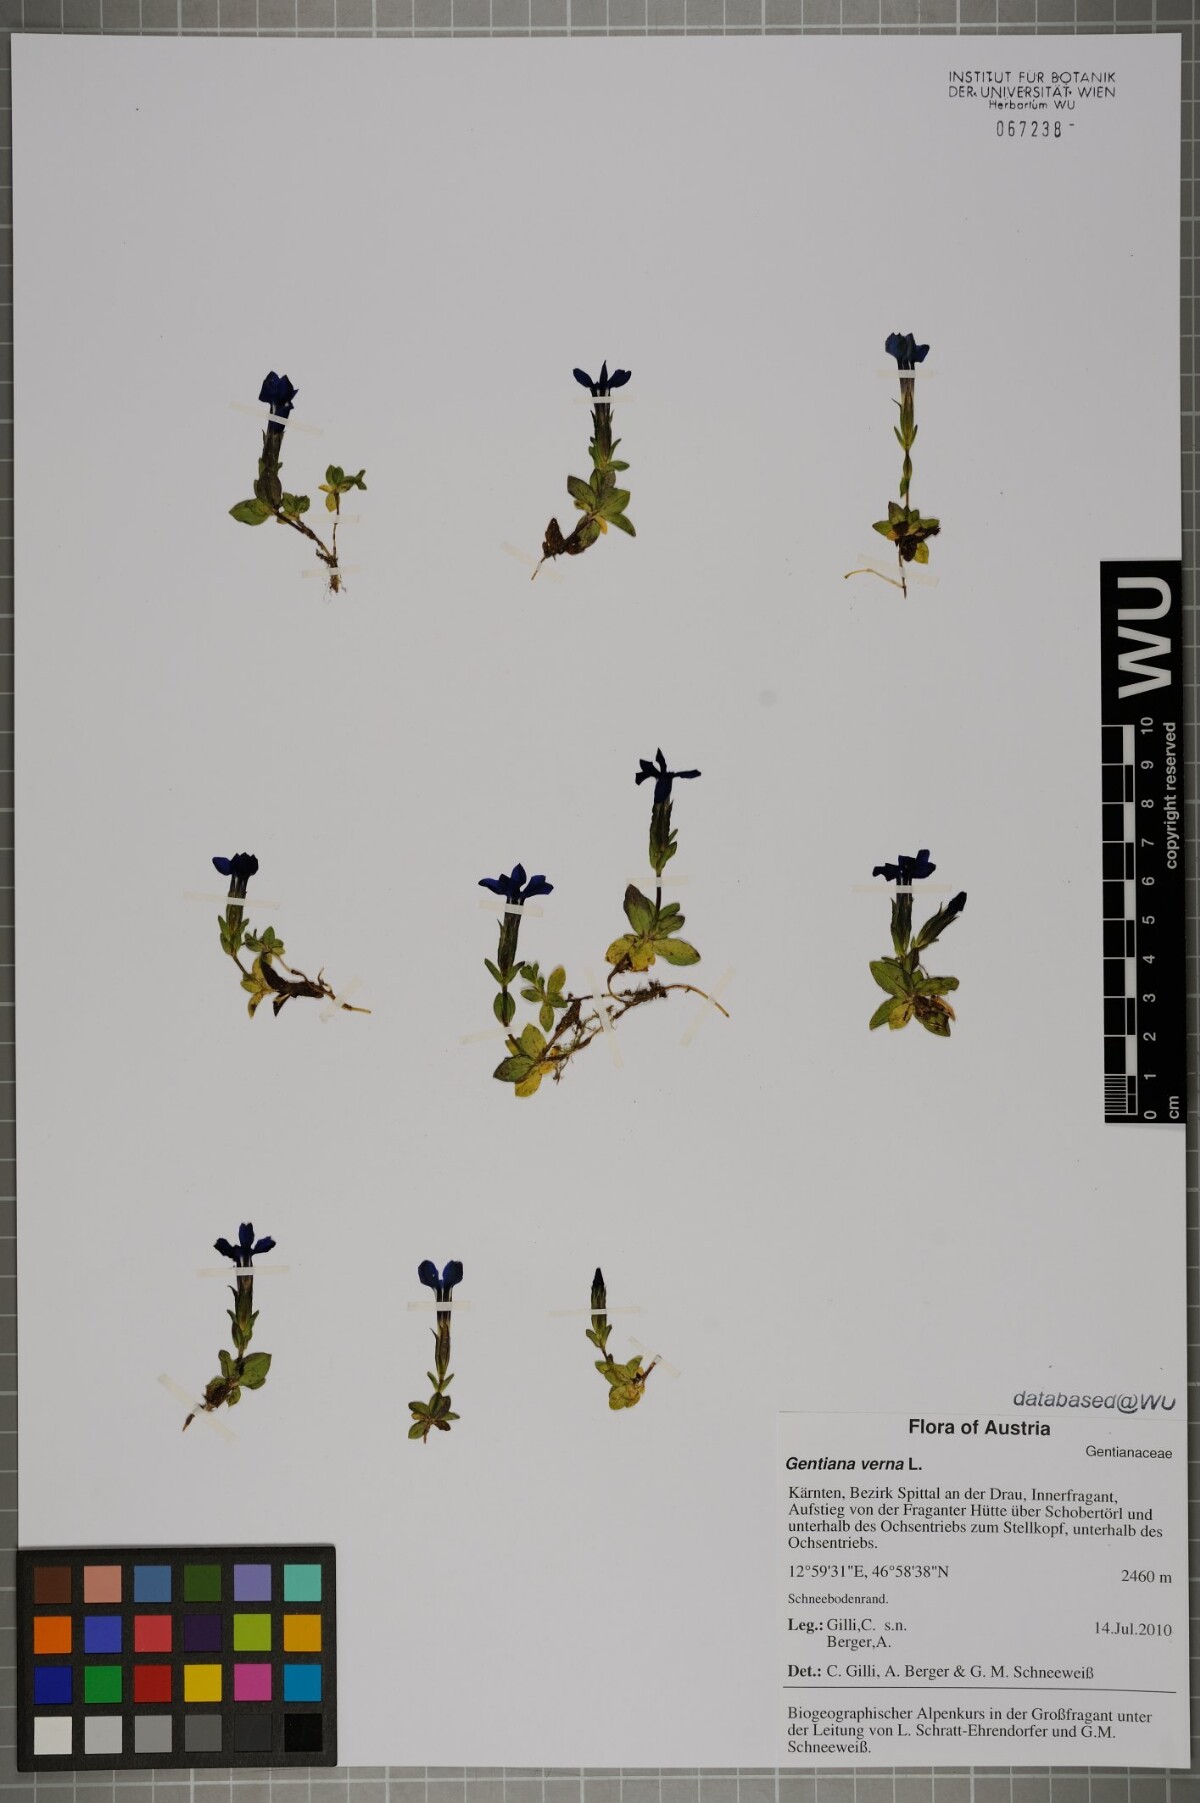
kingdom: Plantae
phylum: Tracheophyta
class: Magnoliopsida
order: Gentianales
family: Gentianaceae
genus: Gentiana
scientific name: Gentiana verna
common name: Spring gentian
